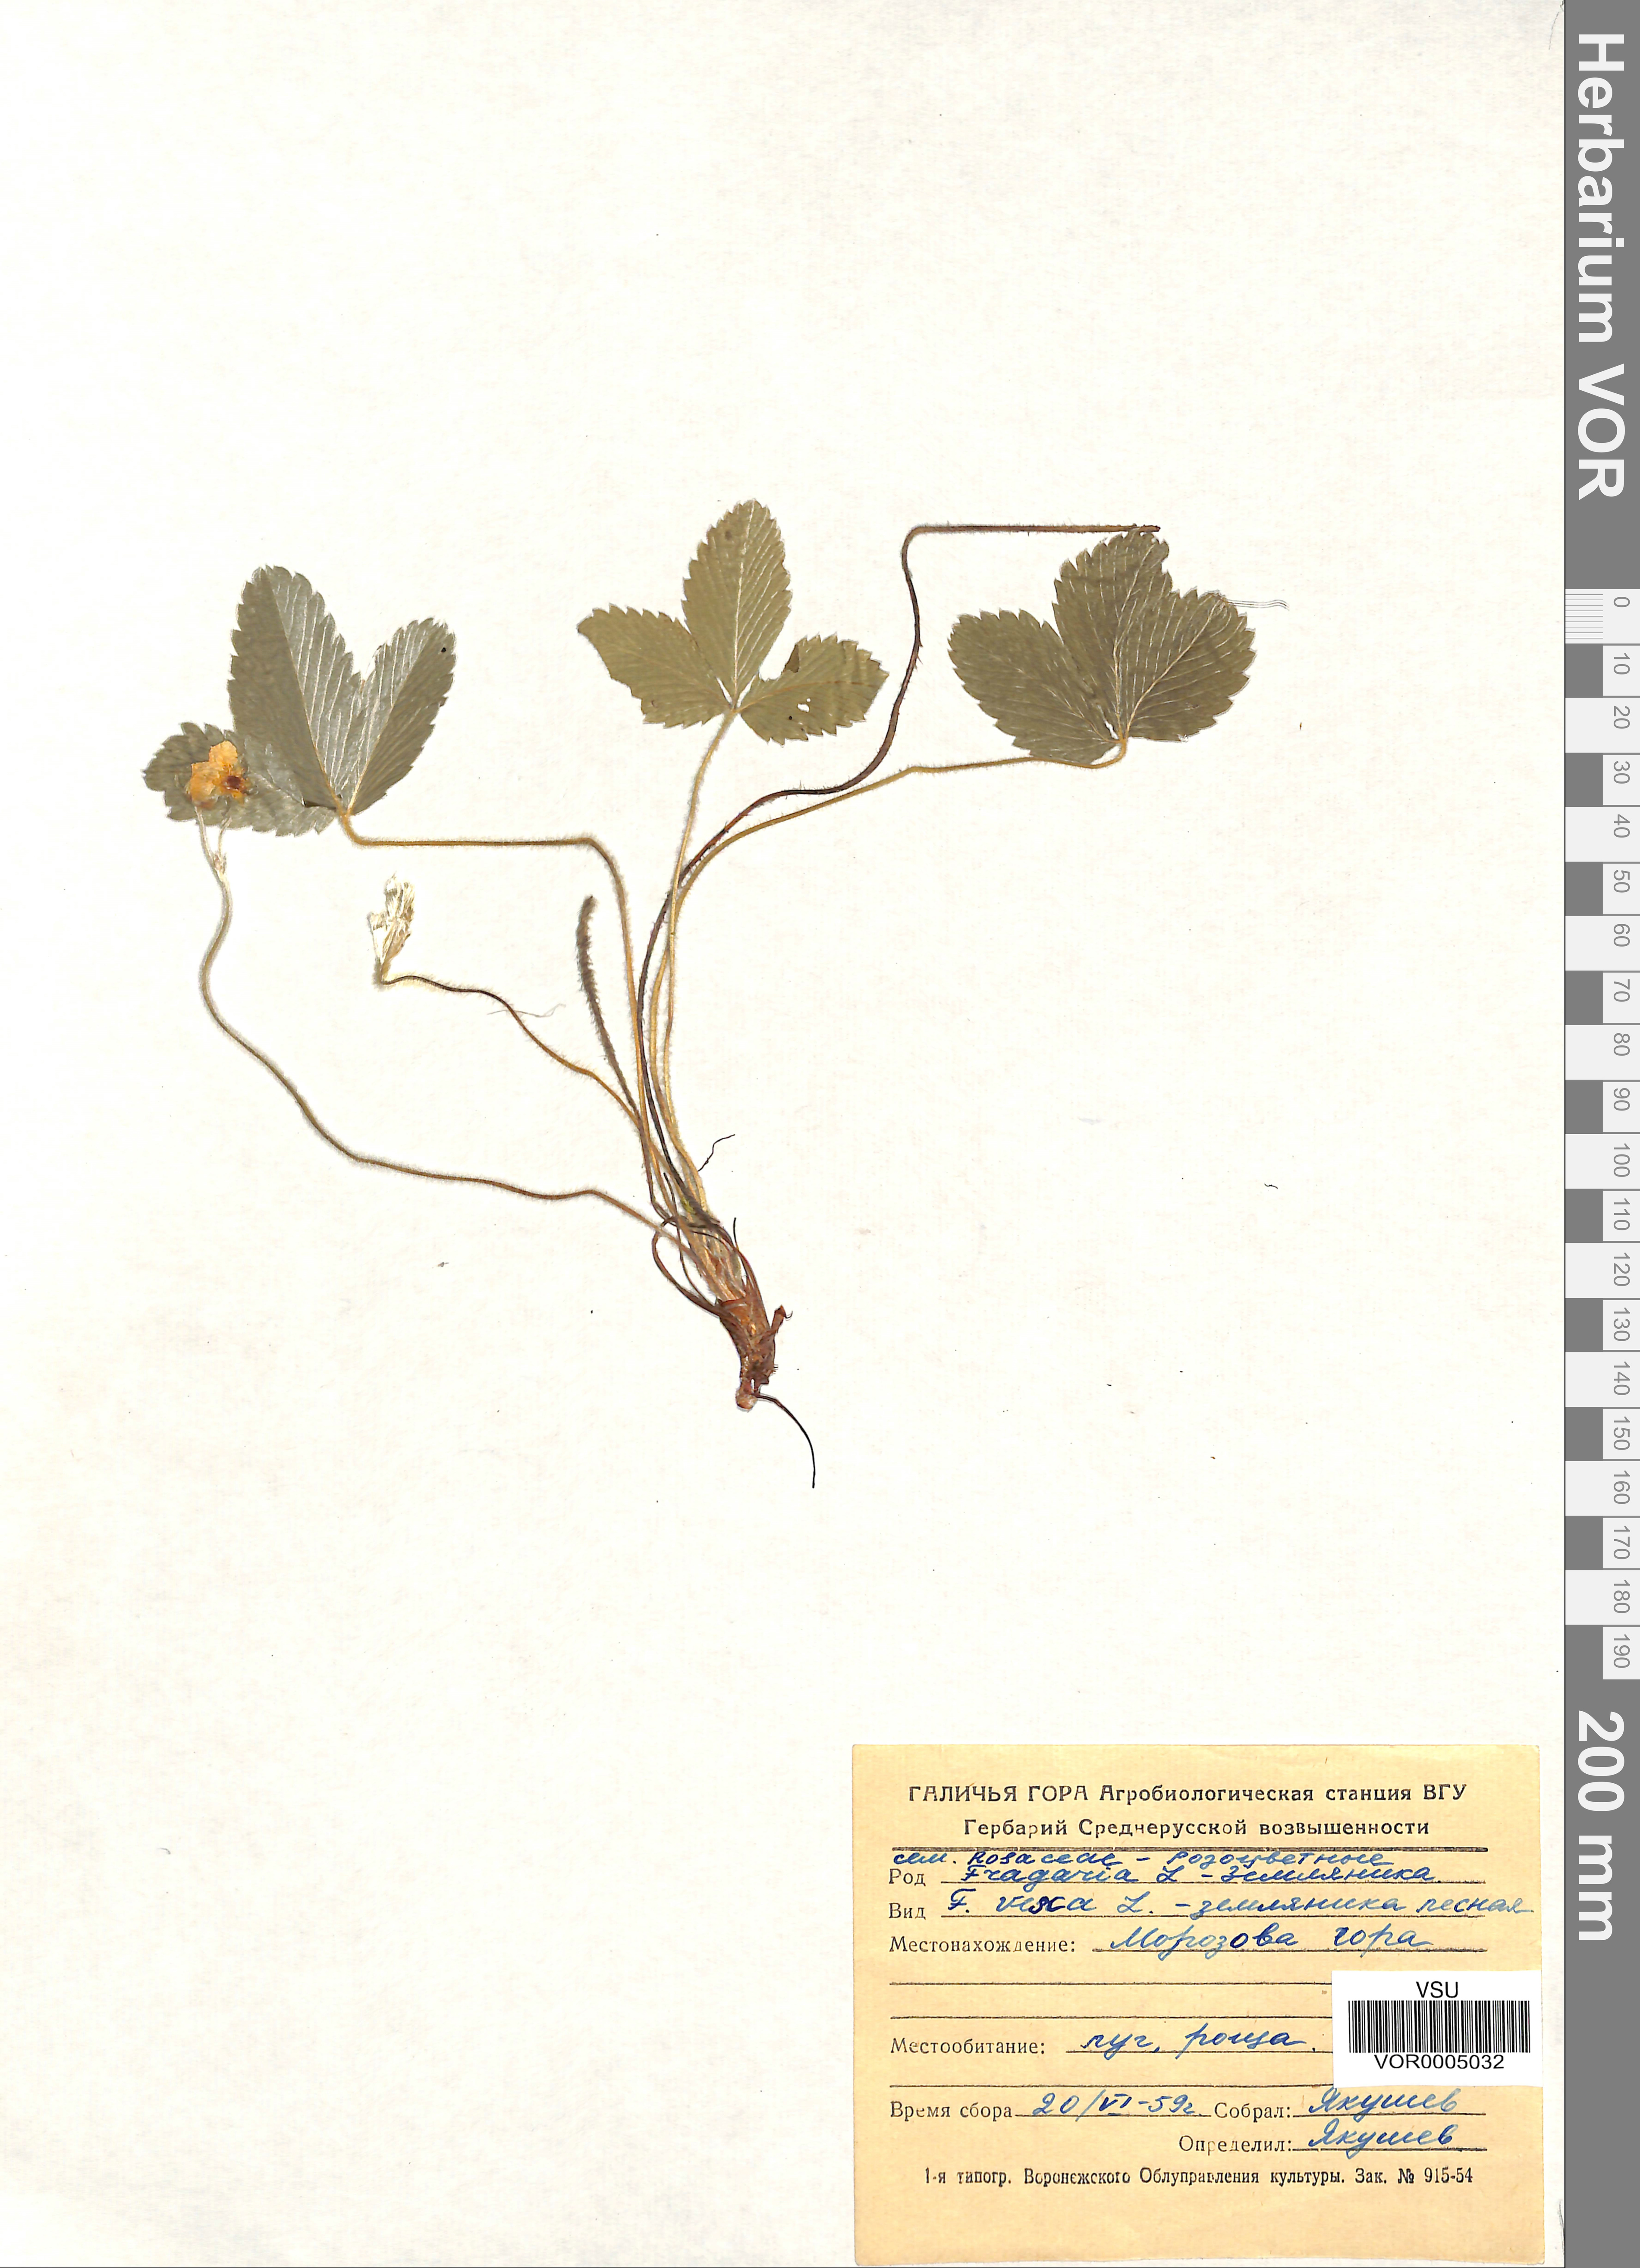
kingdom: Plantae
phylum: Tracheophyta
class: Magnoliopsida
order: Rosales
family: Rosaceae
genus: Fragaria
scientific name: Fragaria vesca
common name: Wild strawberry
